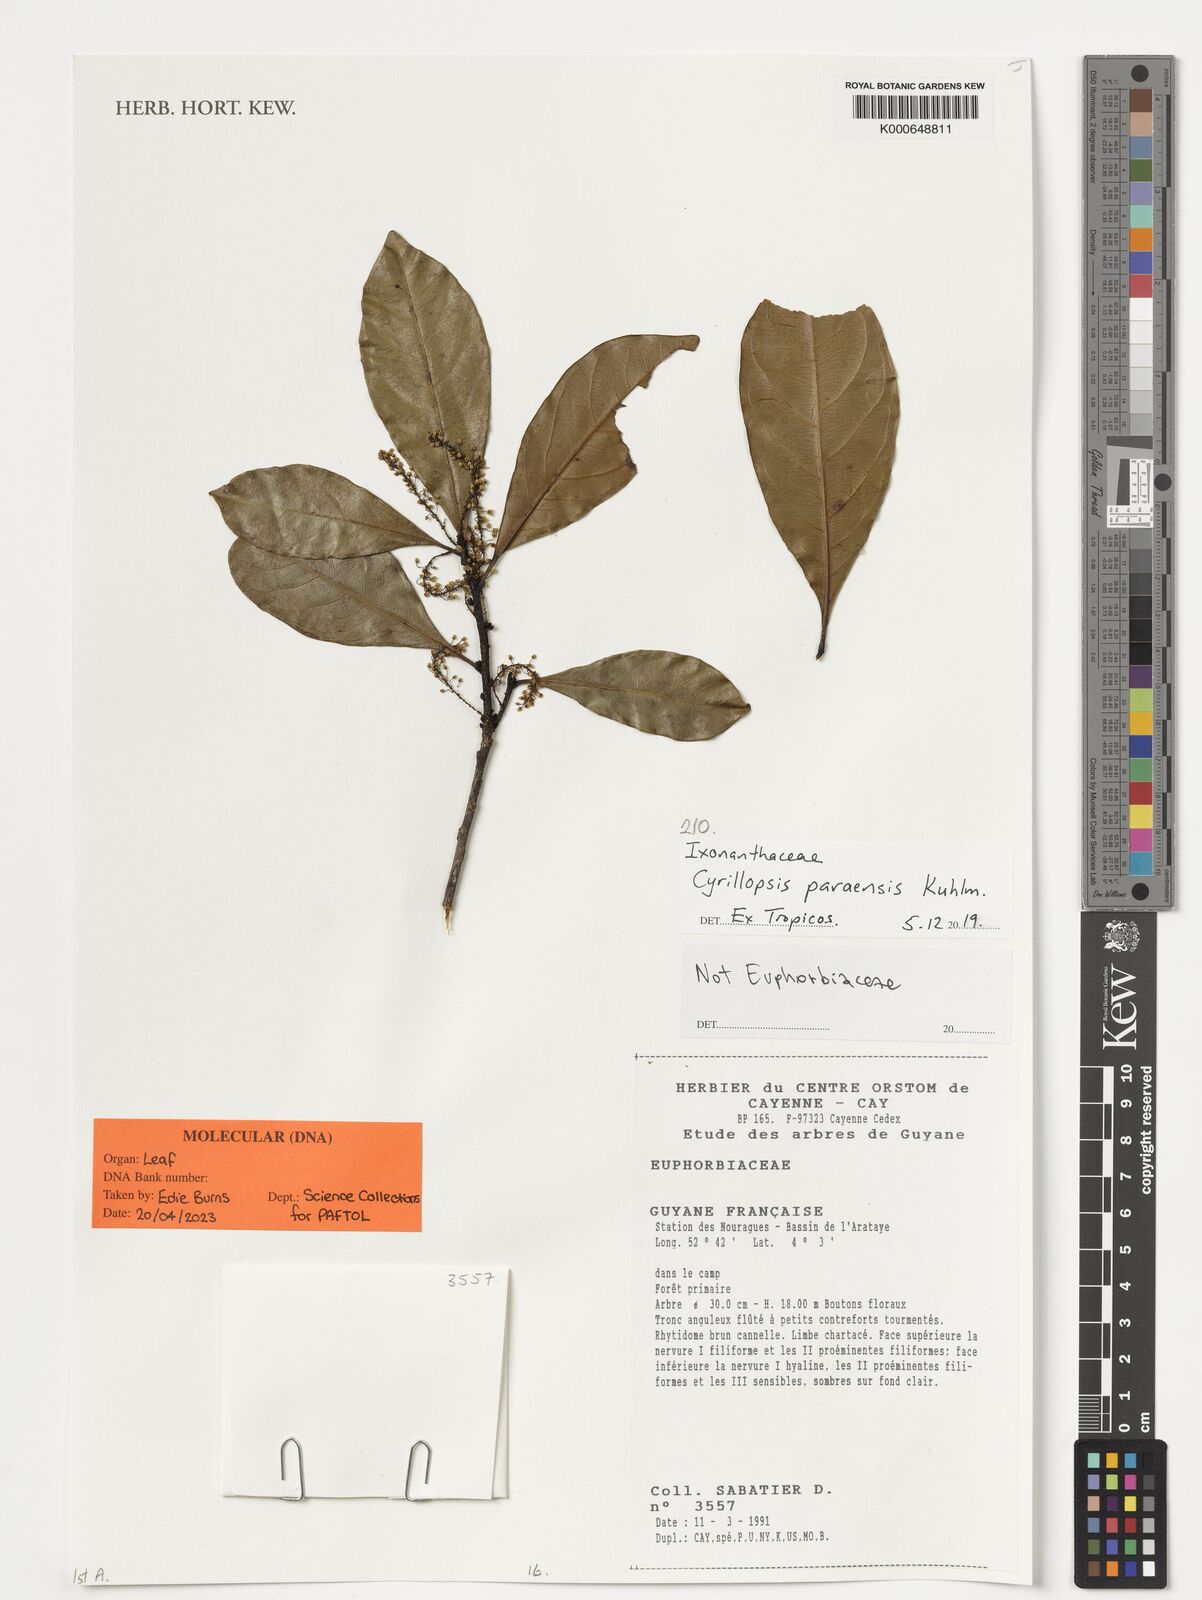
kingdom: Plantae
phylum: Tracheophyta
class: Magnoliopsida
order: Malpighiales
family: Ixonanthaceae
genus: Cyrillopsis
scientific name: Cyrillopsis paraensis
